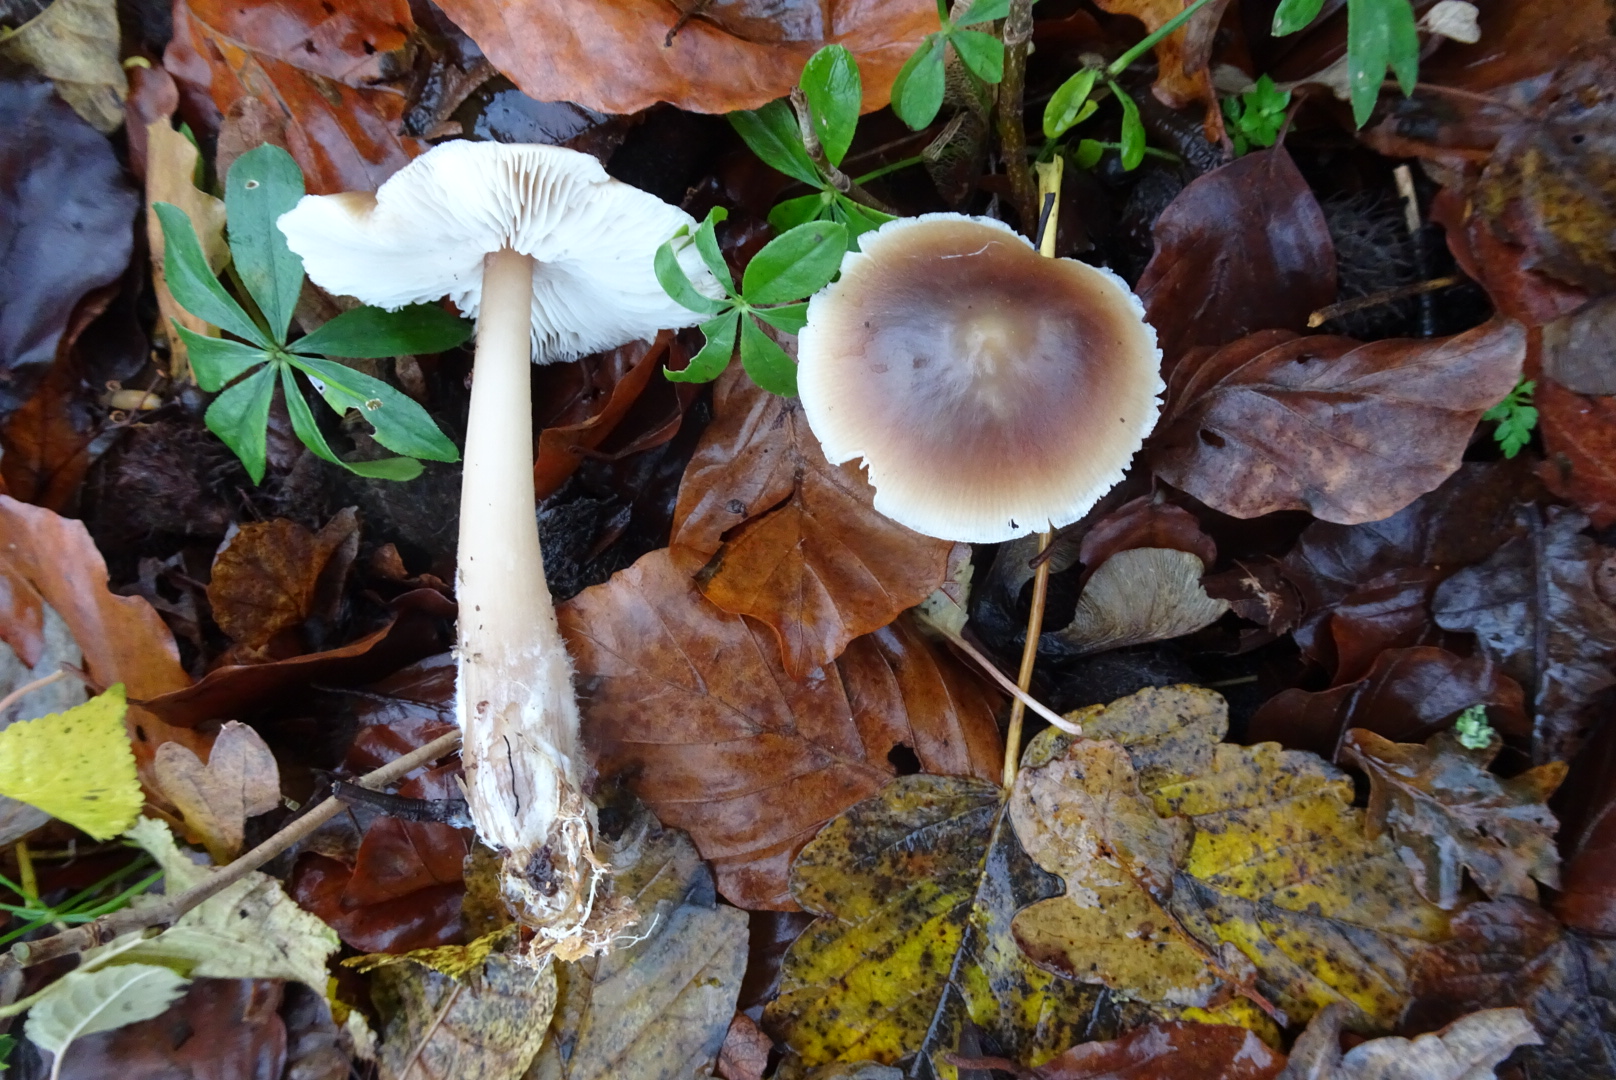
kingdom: Fungi
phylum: Basidiomycota
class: Agaricomycetes
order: Agaricales
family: Omphalotaceae
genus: Rhodocollybia
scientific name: Rhodocollybia asema
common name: horngrå fladhat
